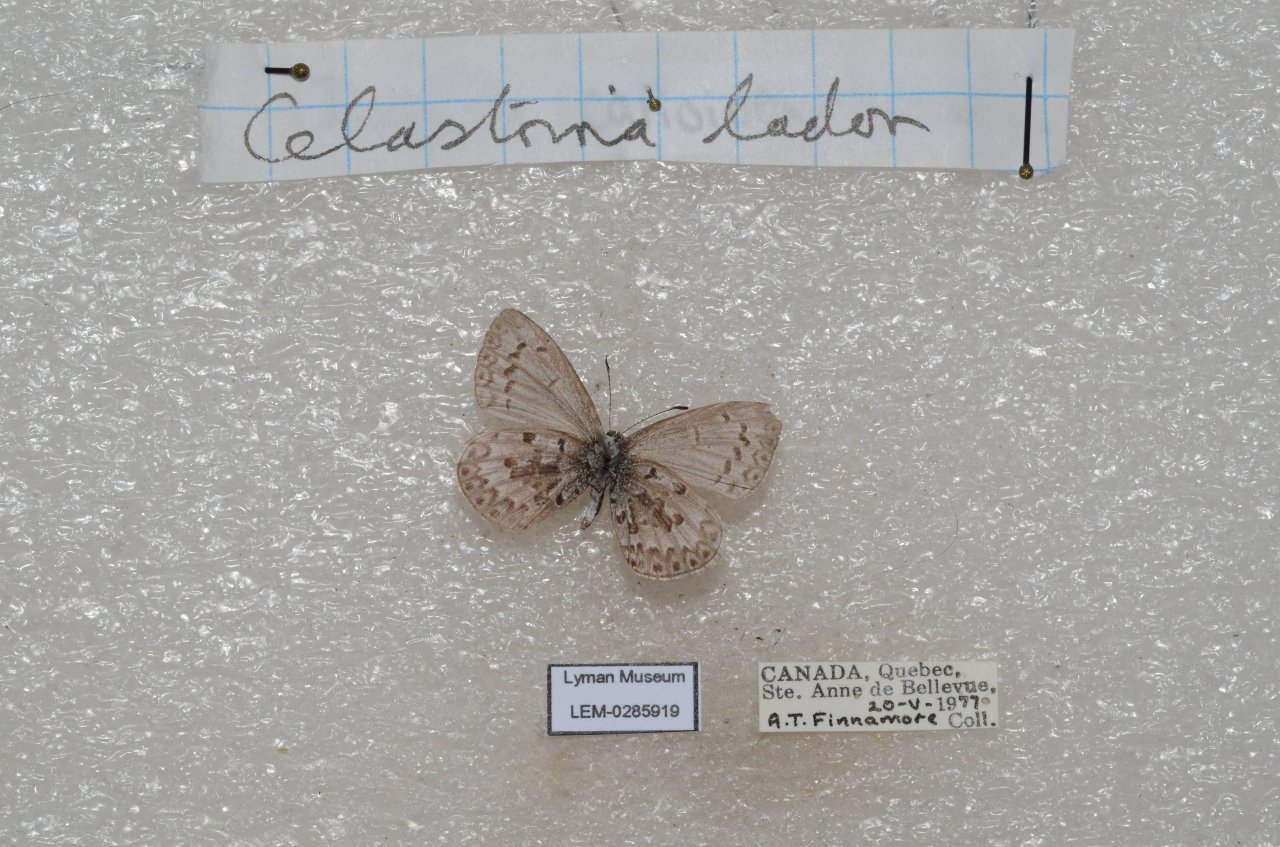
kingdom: Animalia
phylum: Arthropoda
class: Insecta
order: Lepidoptera
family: Lycaenidae
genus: Celastrina
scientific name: Celastrina lucia
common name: Northern Spring Azure
